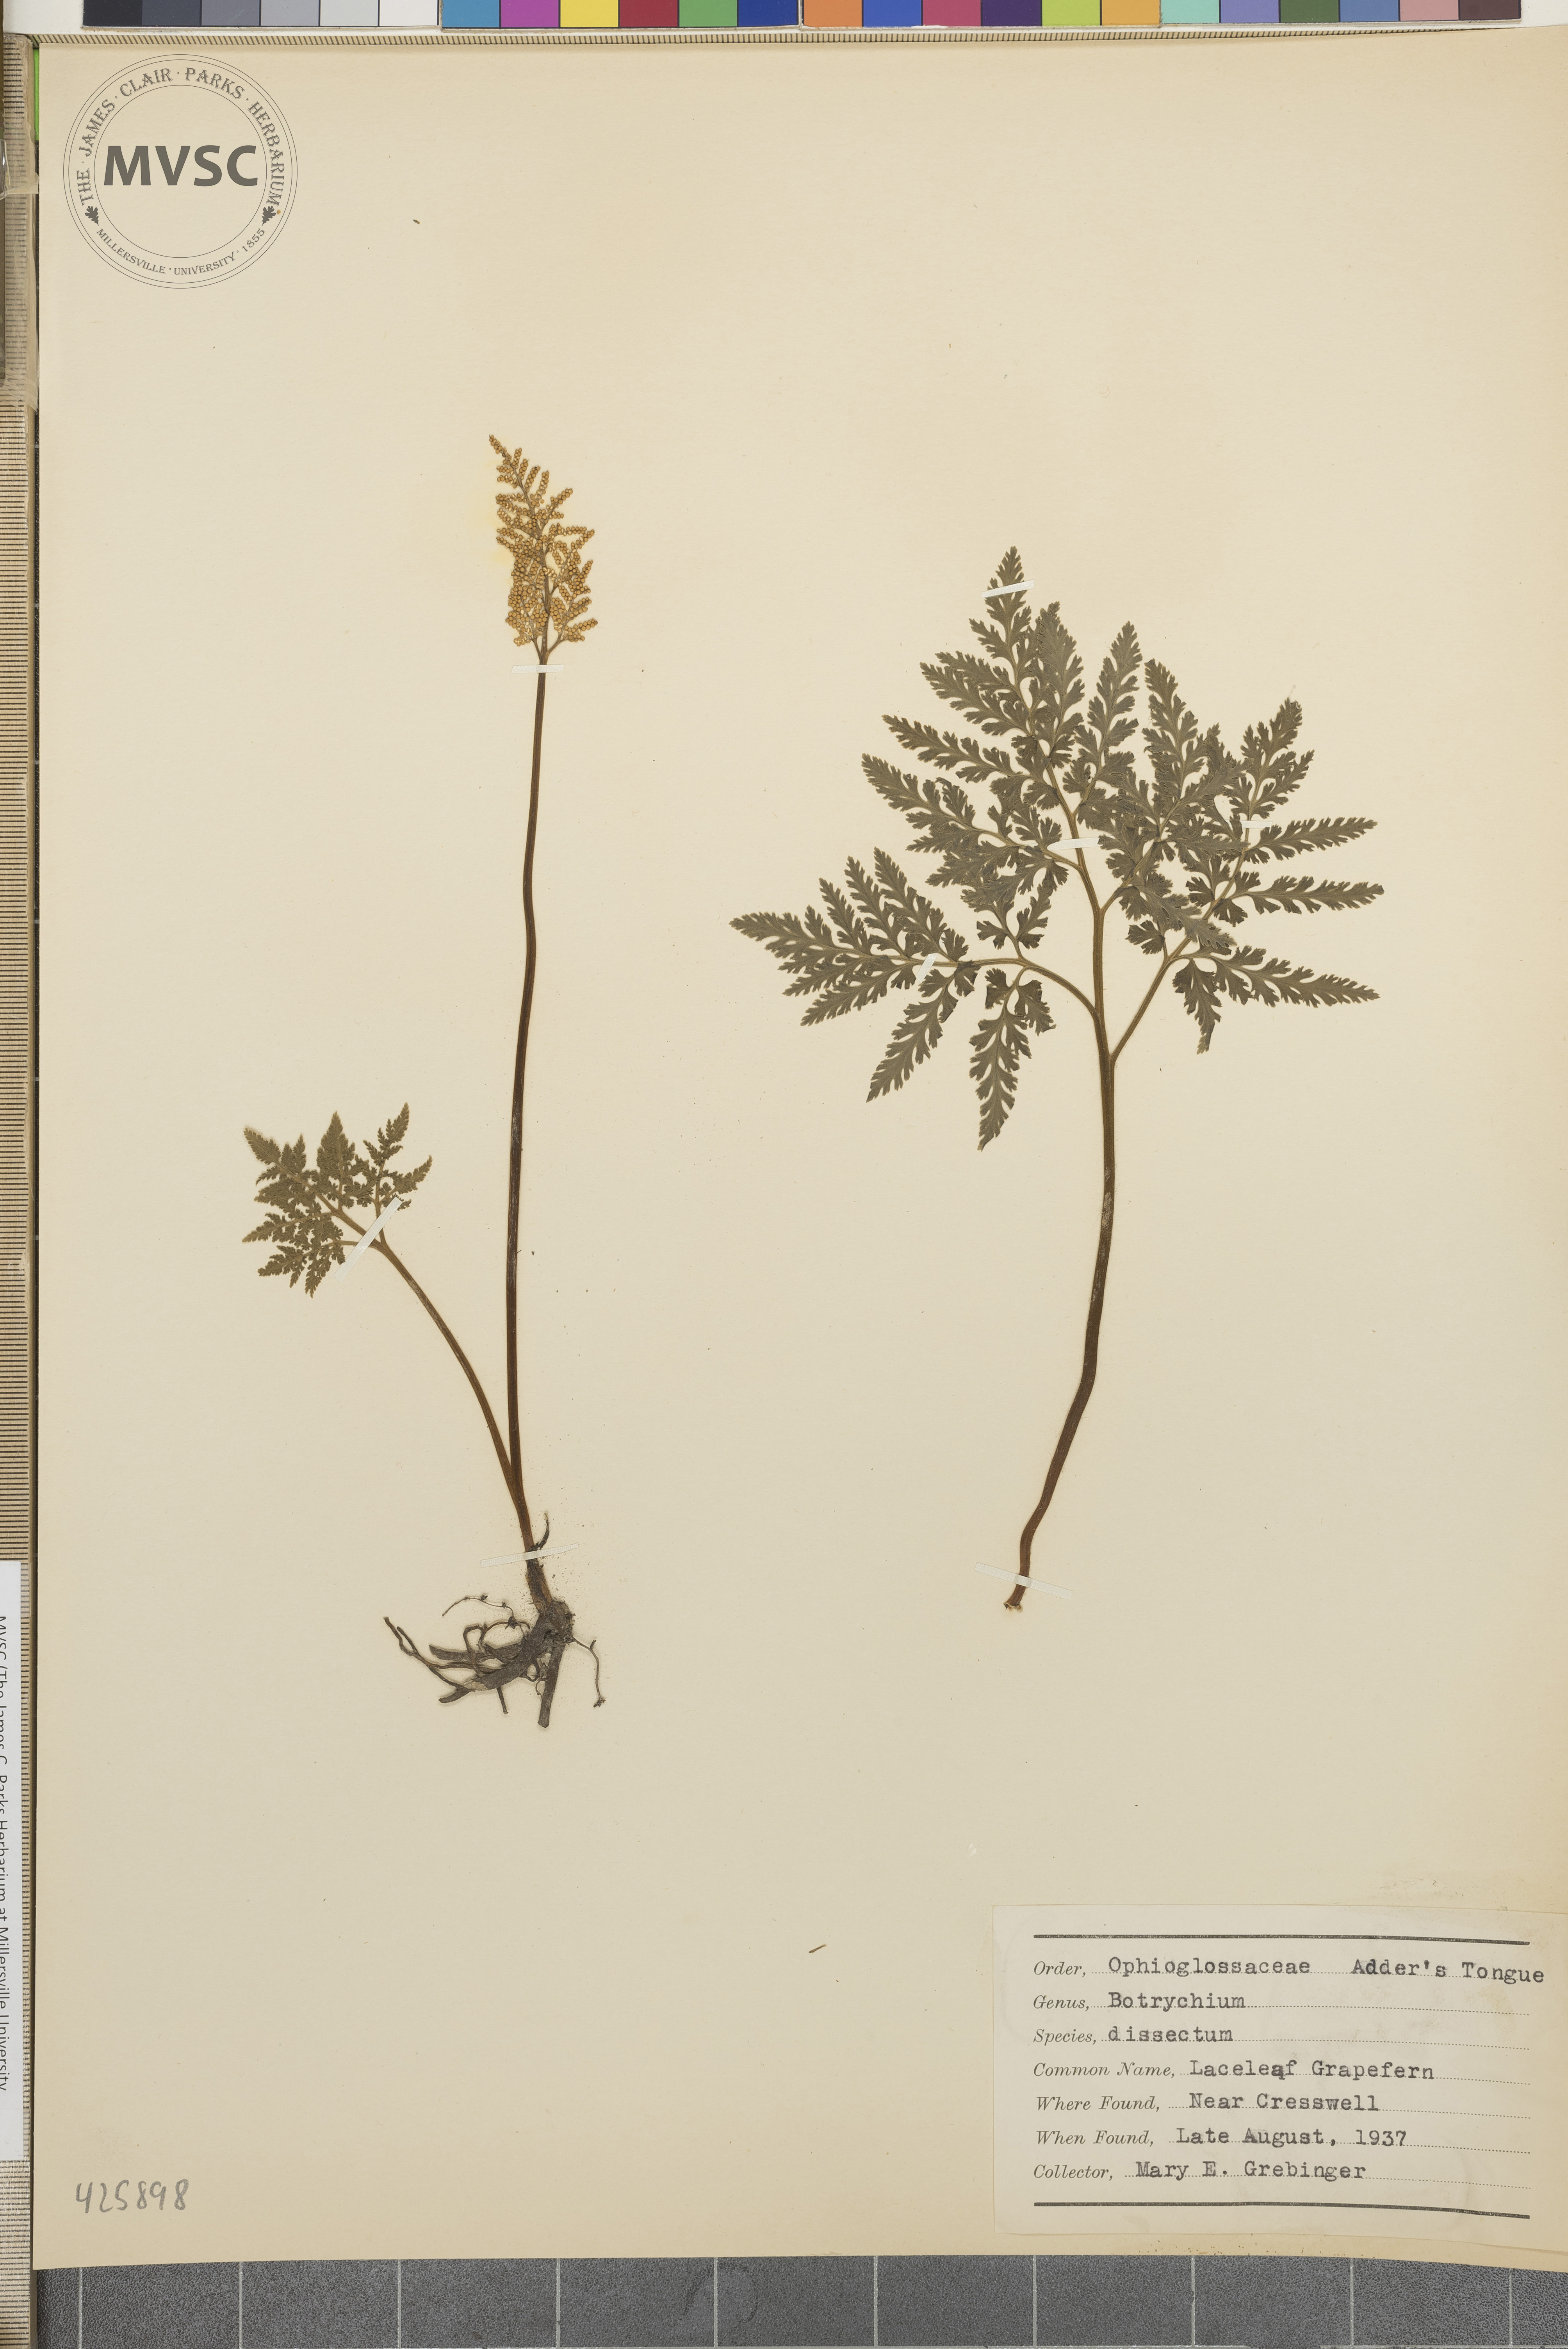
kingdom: Plantae
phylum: Tracheophyta
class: Polypodiopsida
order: Ophioglossales
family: Ophioglossaceae
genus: Sceptridium
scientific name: Sceptridium dissectum
